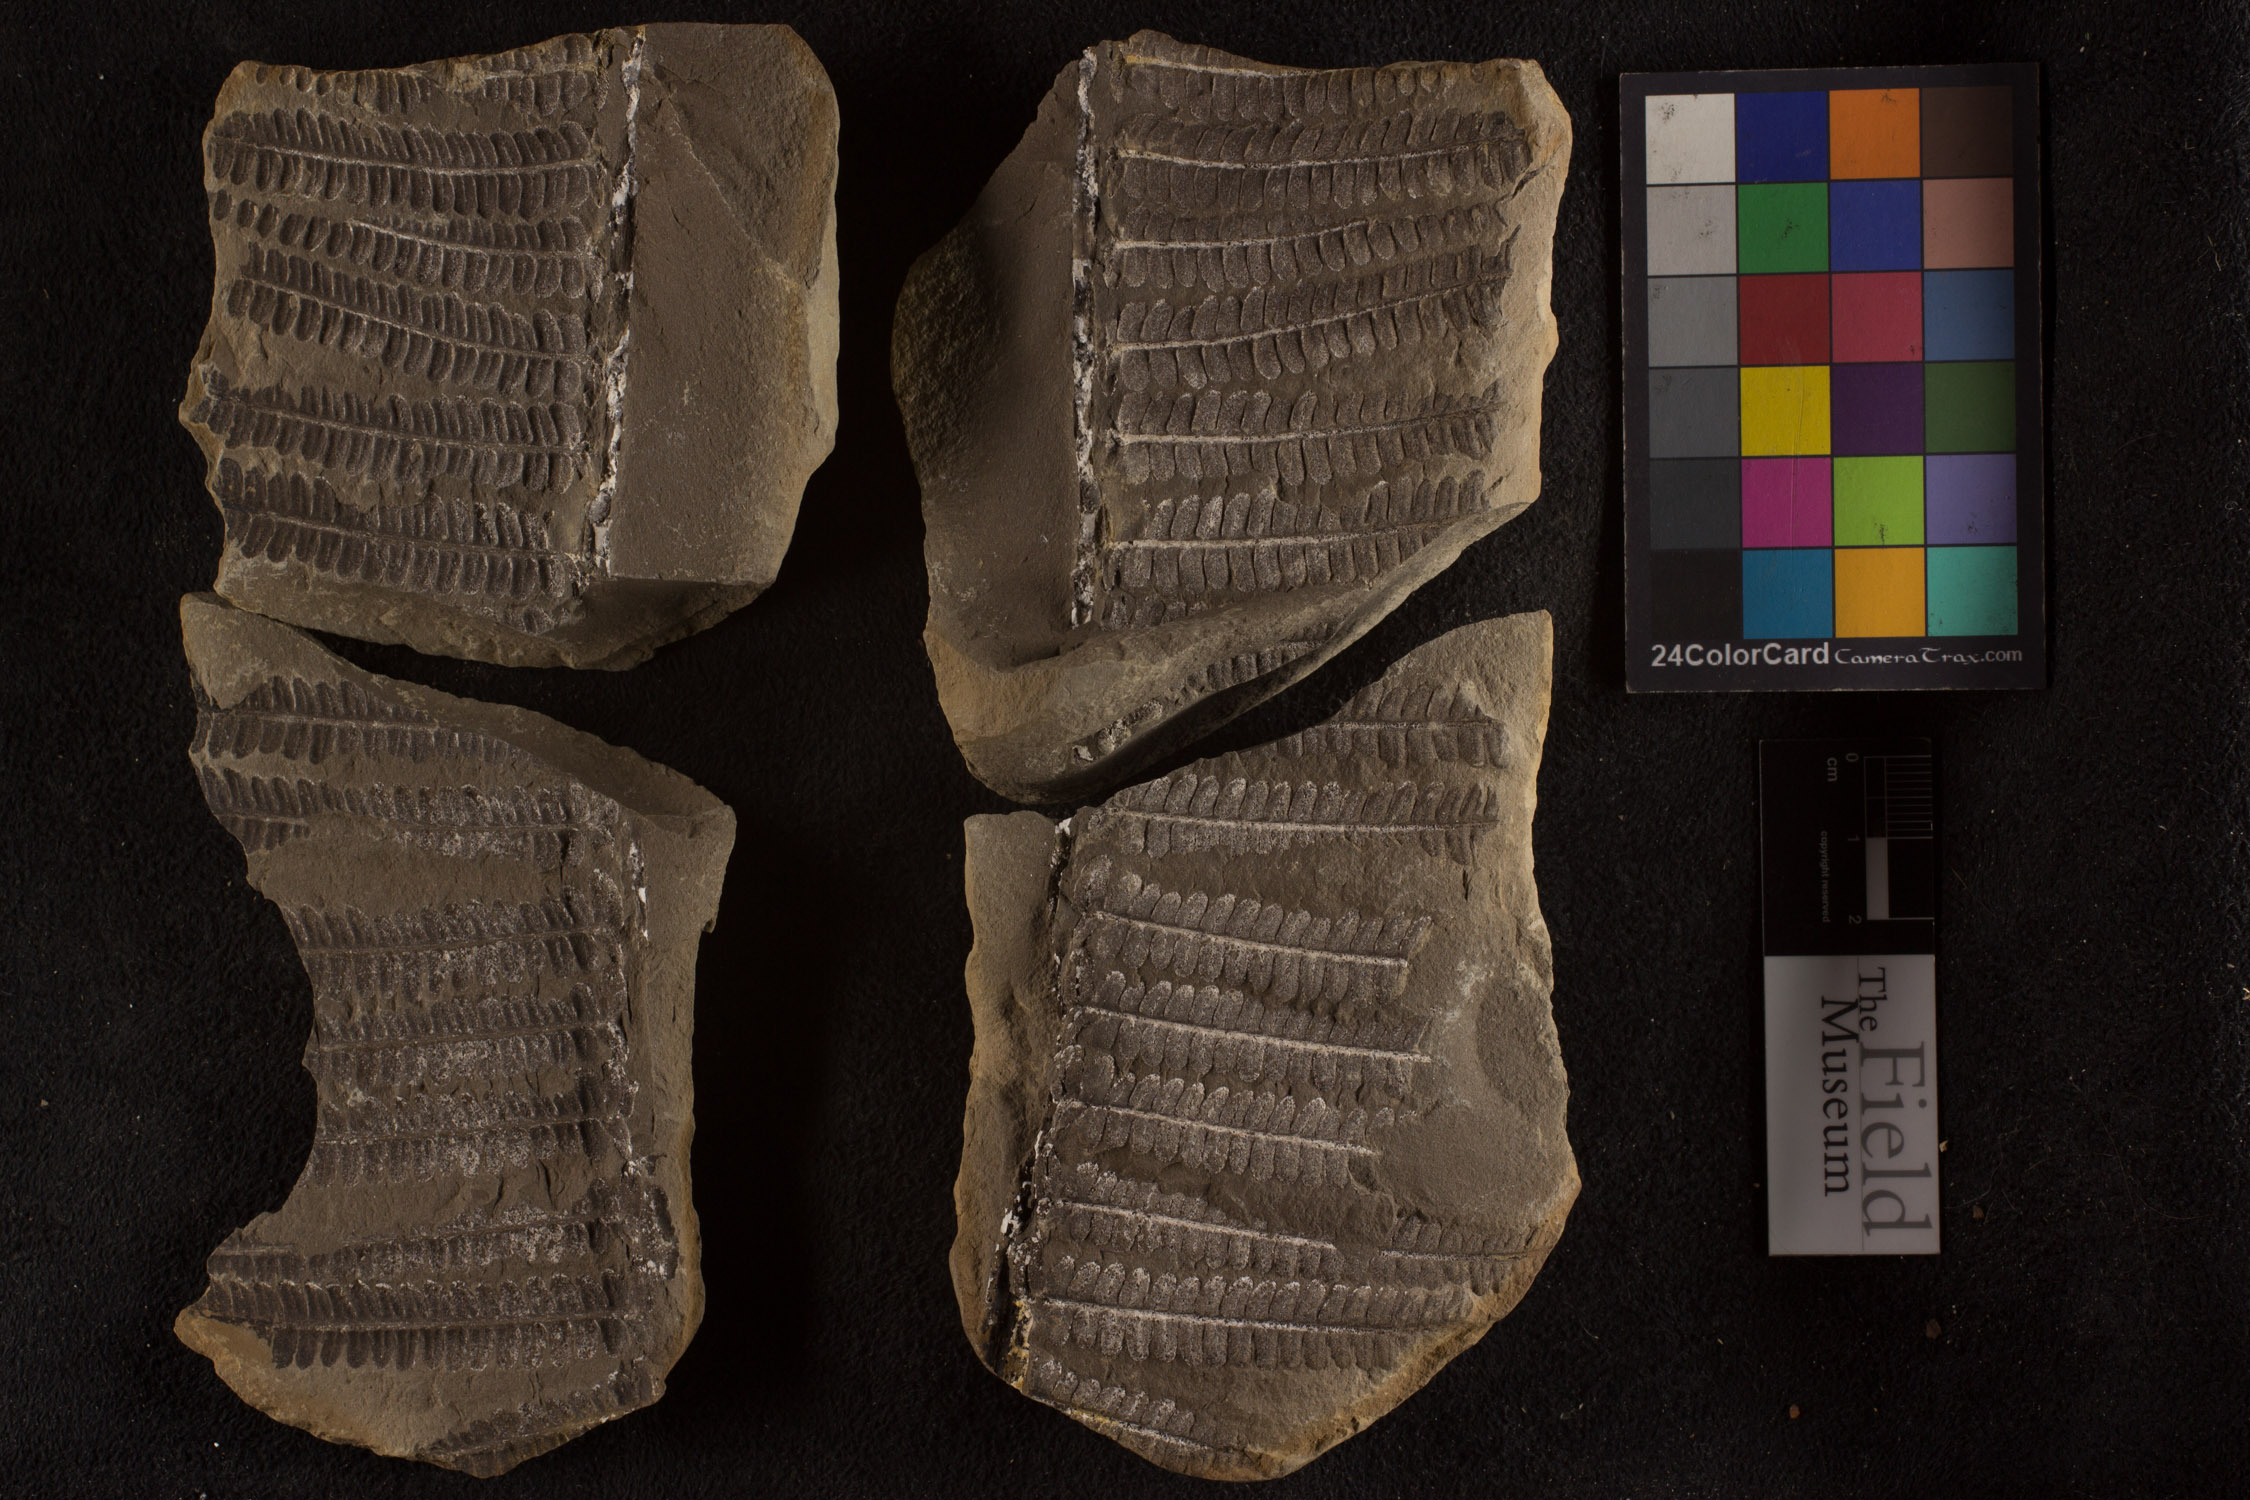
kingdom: Plantae
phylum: Tracheophyta
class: Polypodiopsida
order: Marattiales
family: Asterothecaceae
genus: Pecopteris
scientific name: Pecopteris
